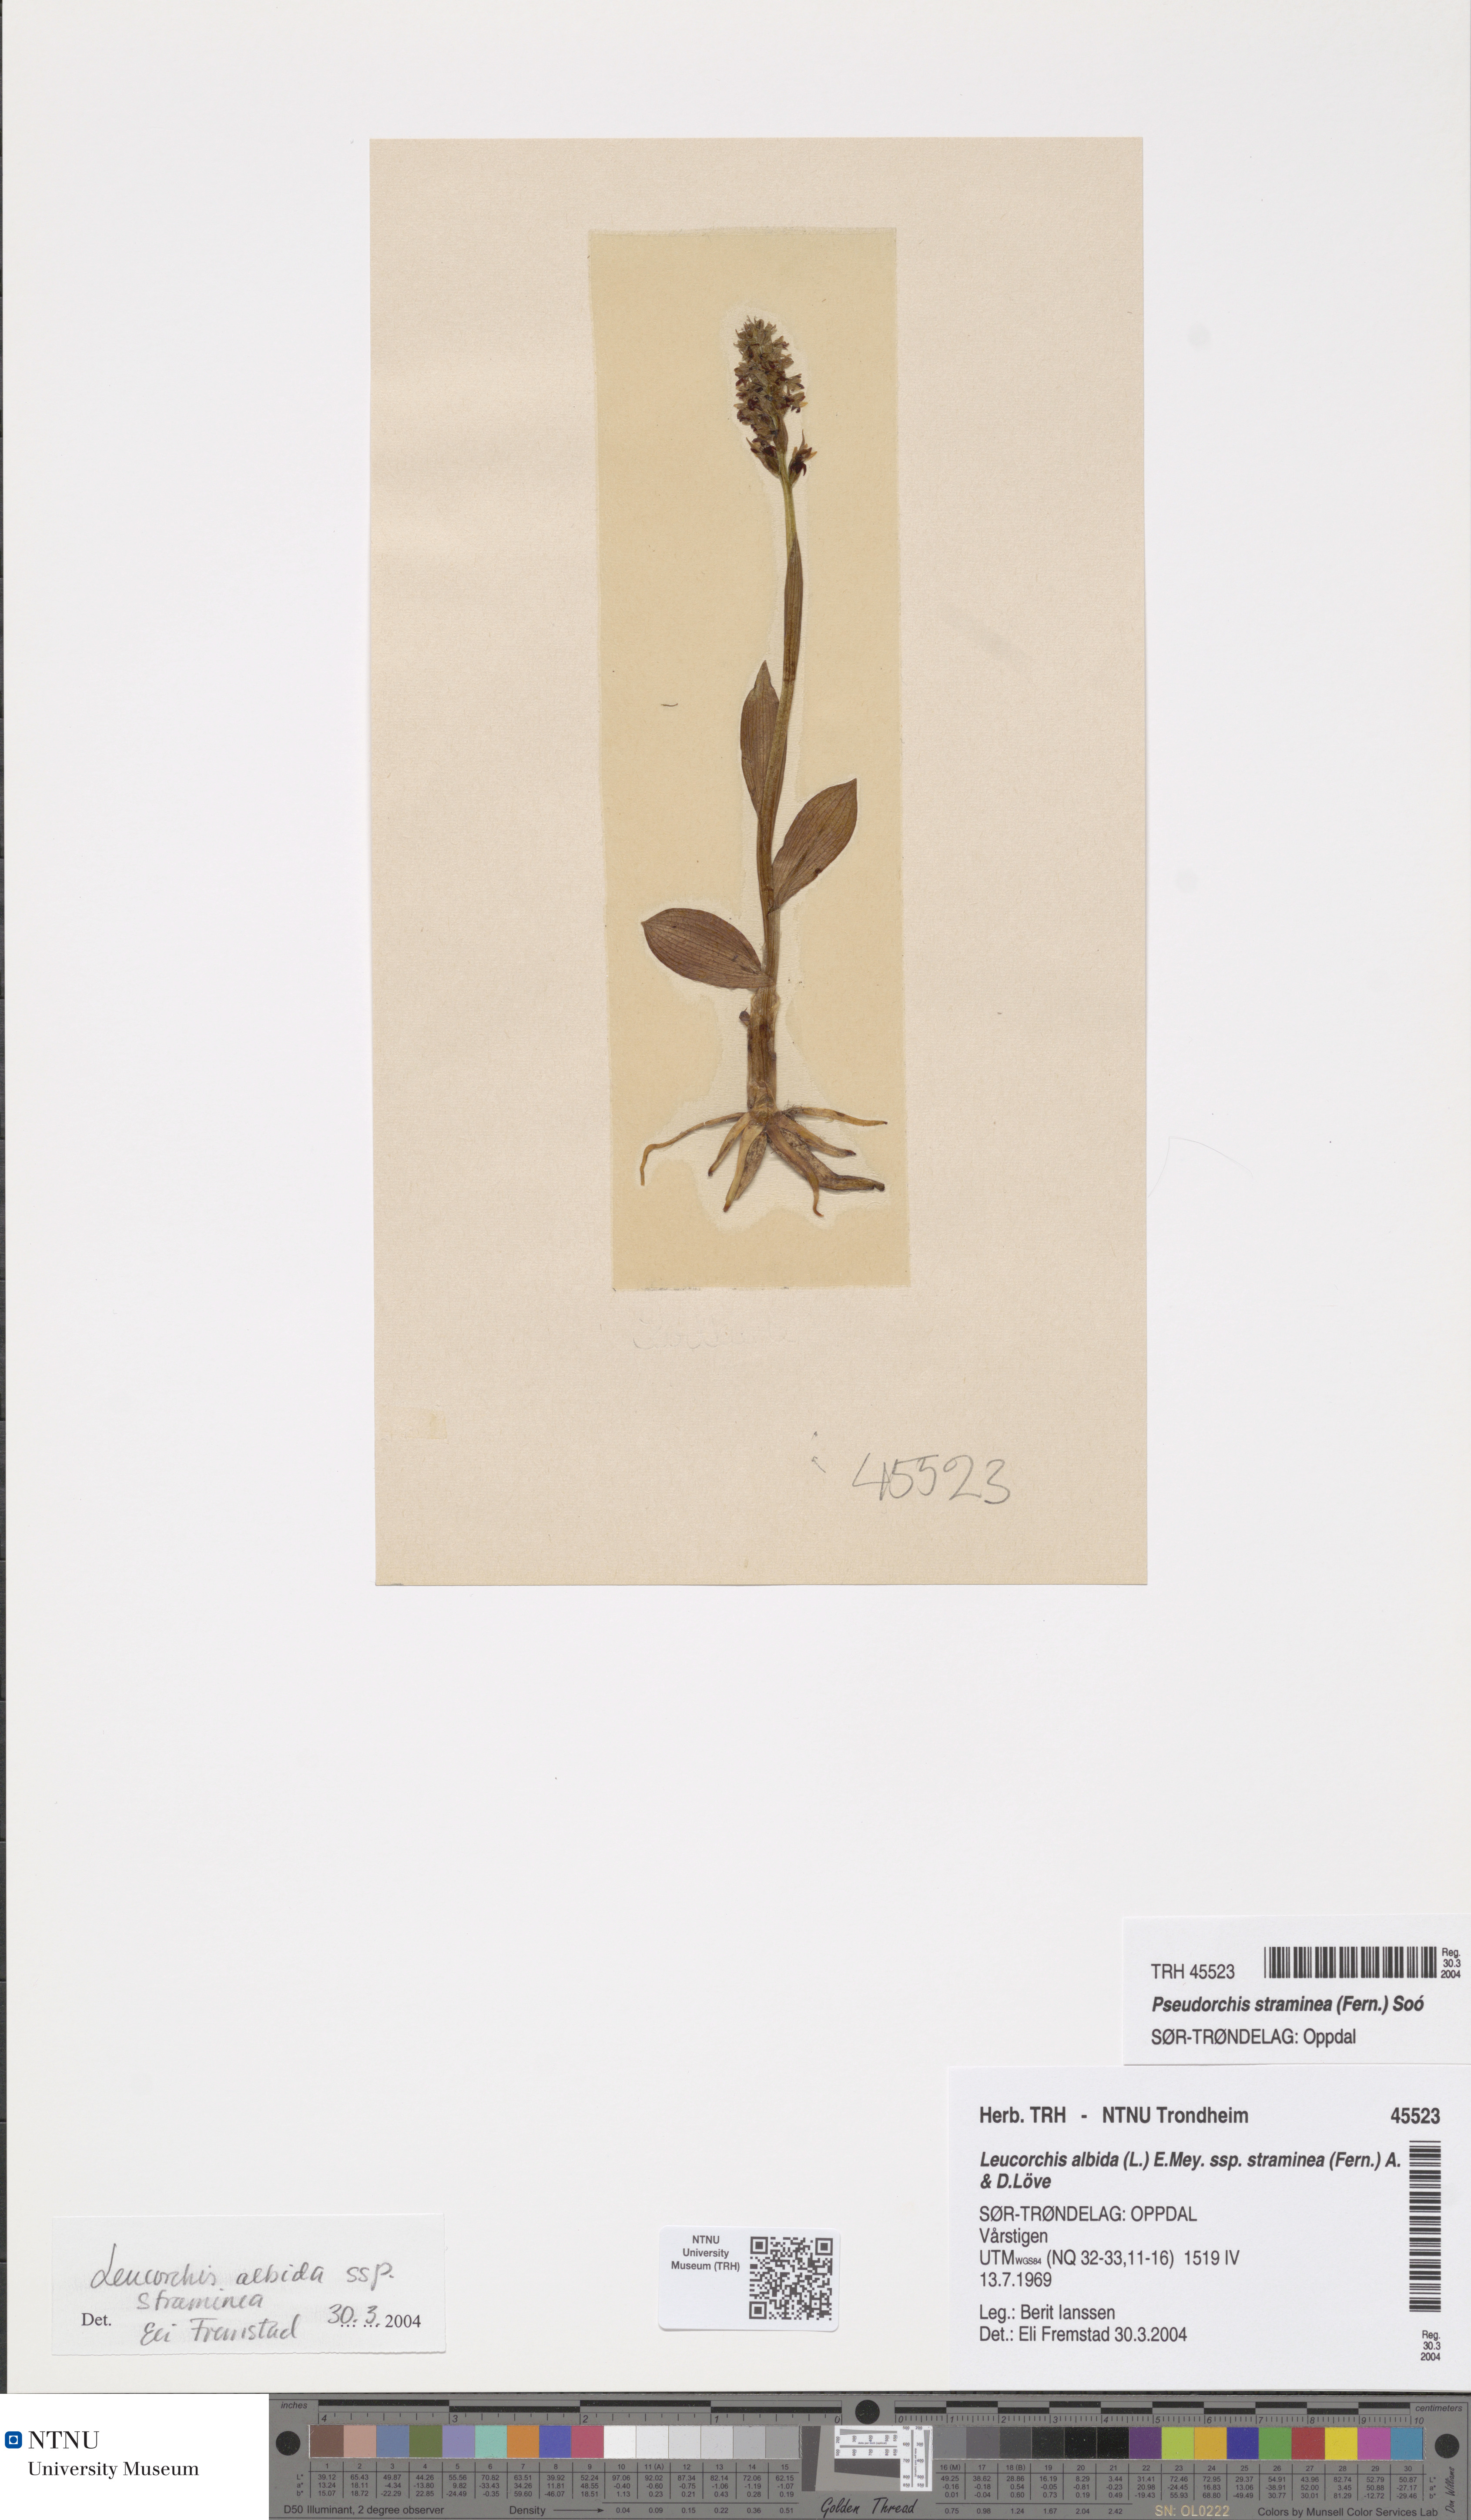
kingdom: Plantae
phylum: Tracheophyta
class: Liliopsida
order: Asparagales
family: Orchidaceae
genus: Pseudorchis
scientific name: Pseudorchis straminea
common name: Vanilla-scented bog orchid
